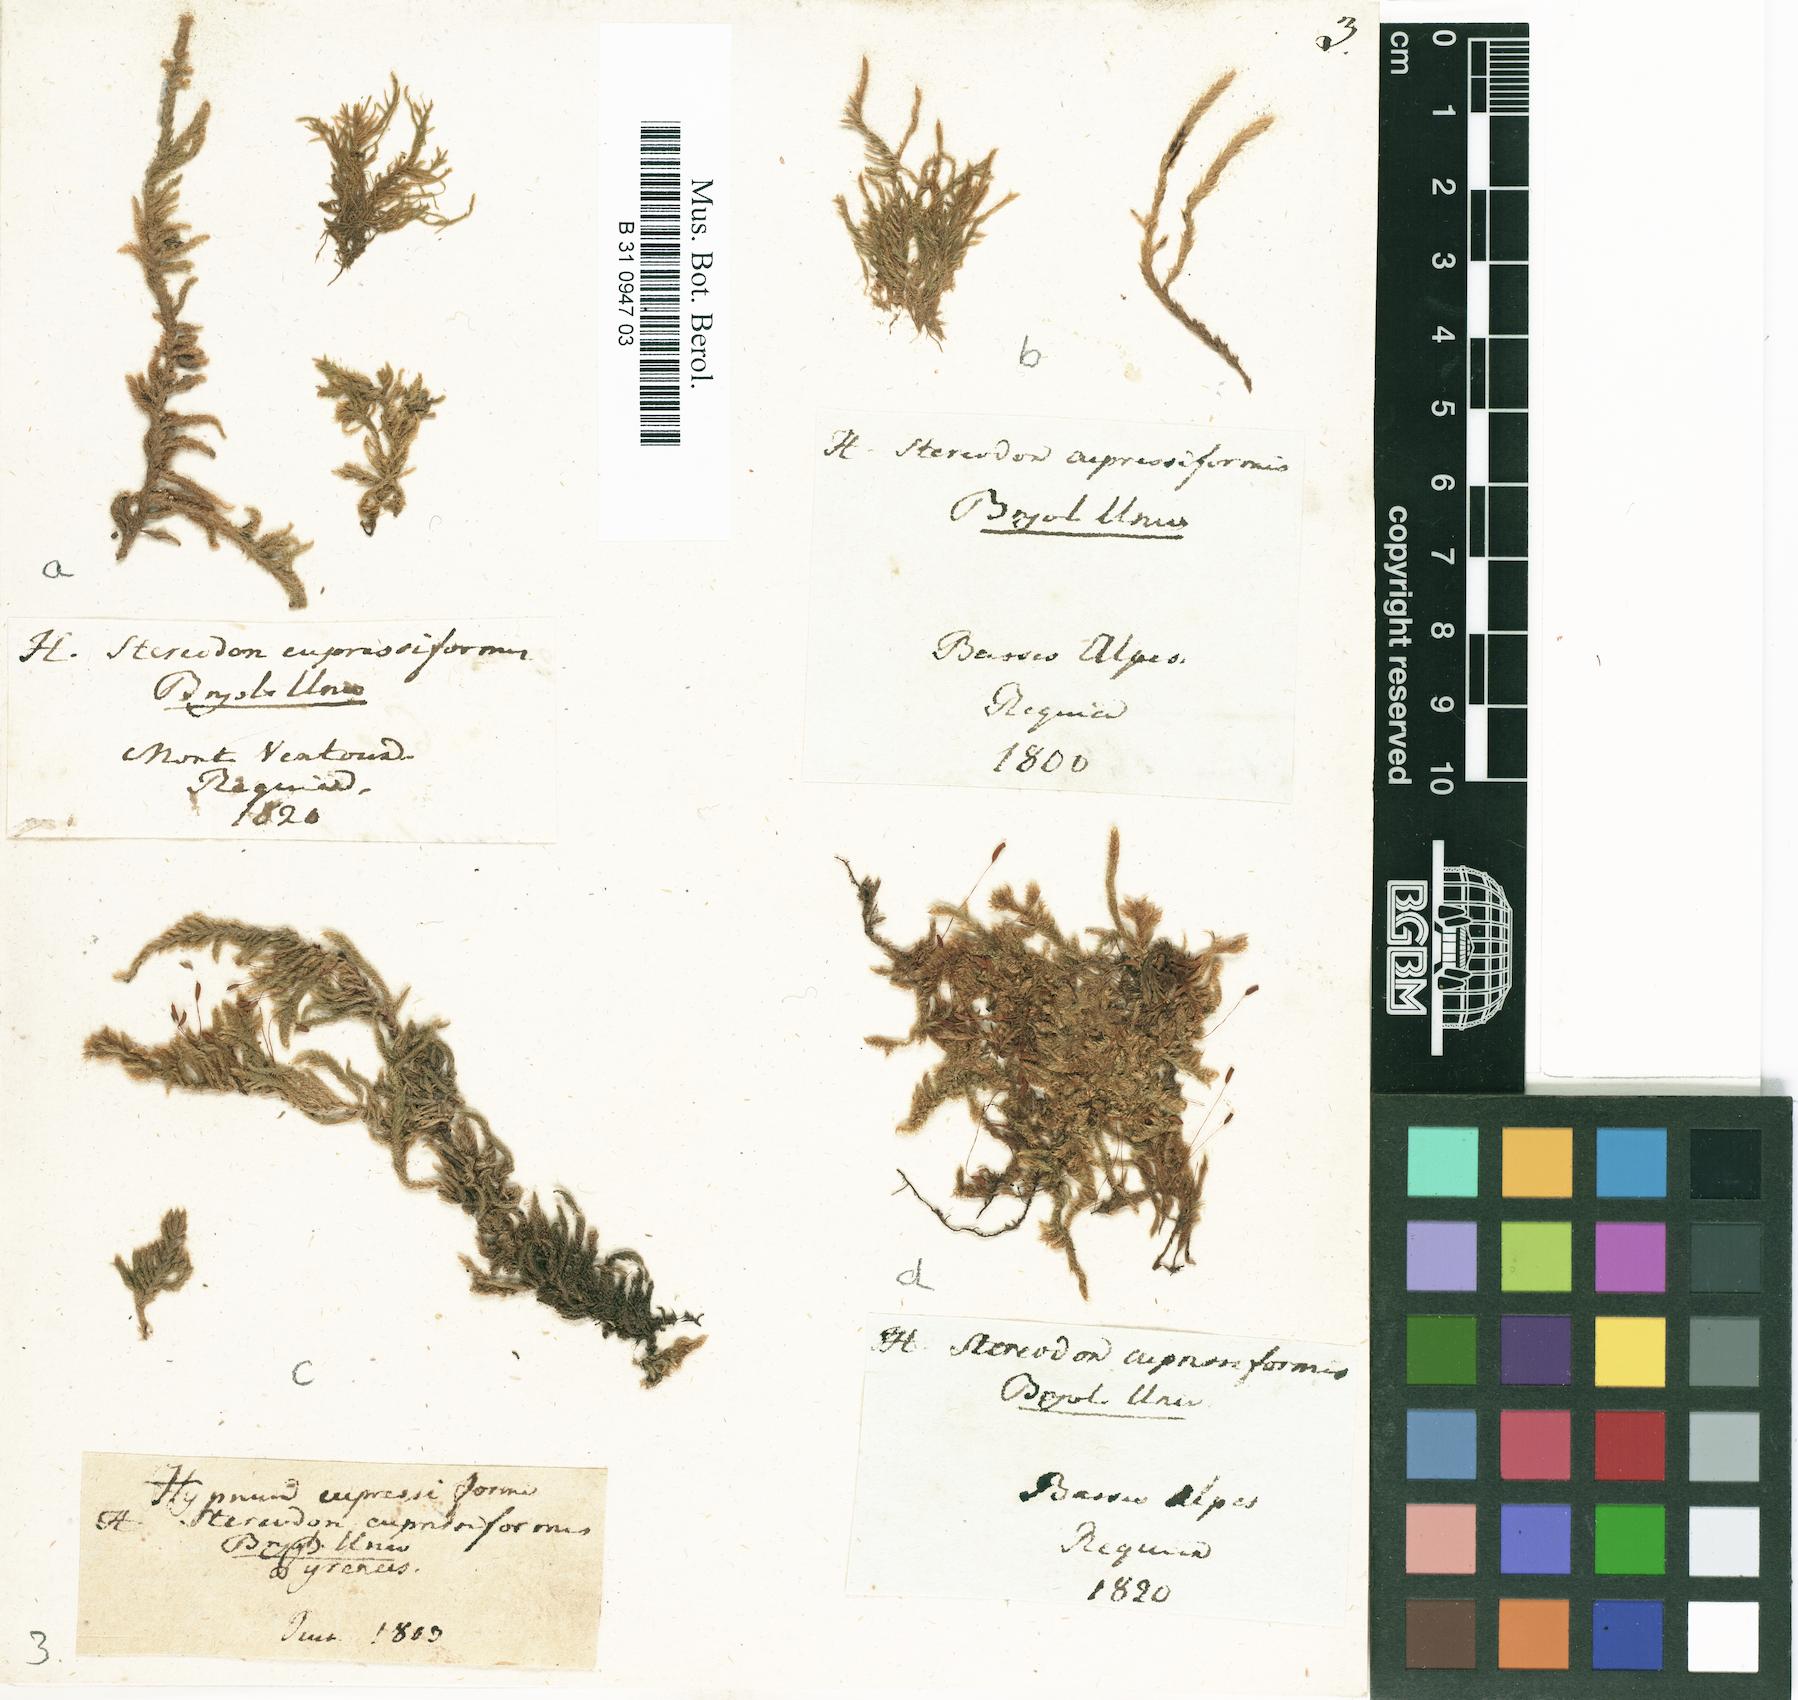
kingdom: Plantae
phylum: Bryophyta
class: Bryopsida
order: Hypnales
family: Hypnaceae
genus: Hypnum
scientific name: Hypnum cupressiforme
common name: Cypress-leaved plait-moss
